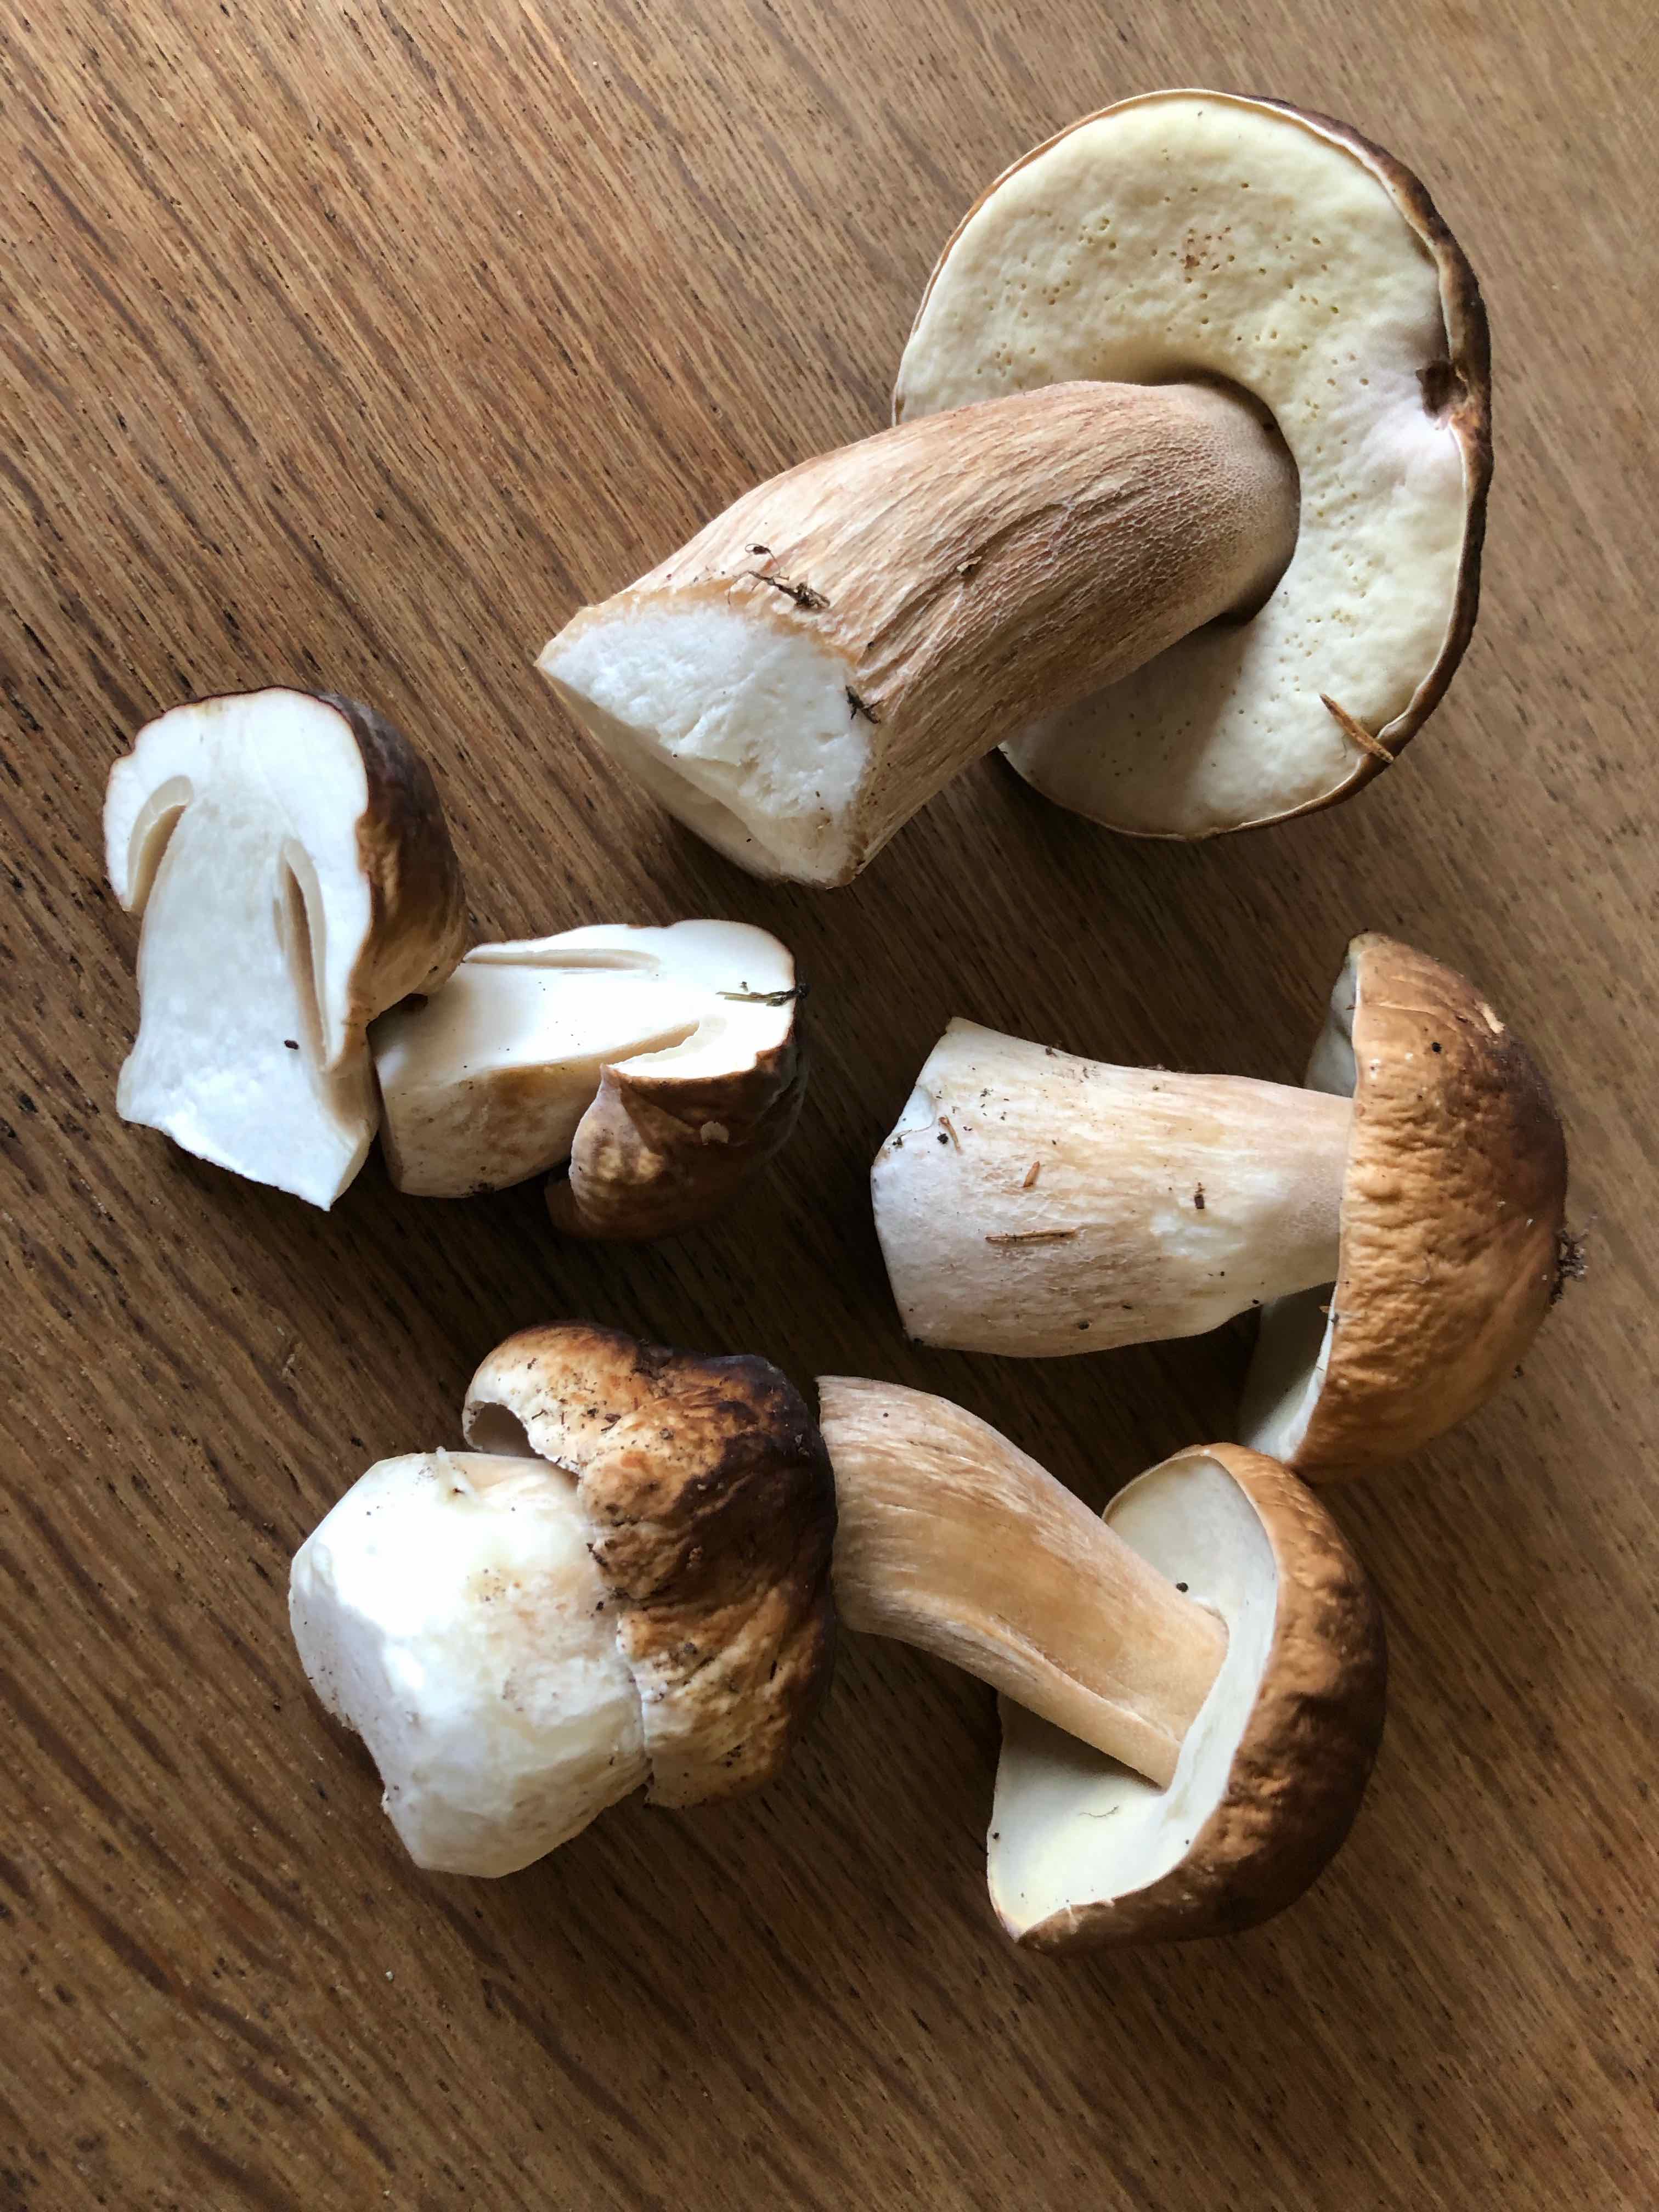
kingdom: Fungi
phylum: Basidiomycota
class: Agaricomycetes
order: Boletales
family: Boletaceae
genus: Boletus
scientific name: Boletus edulis
